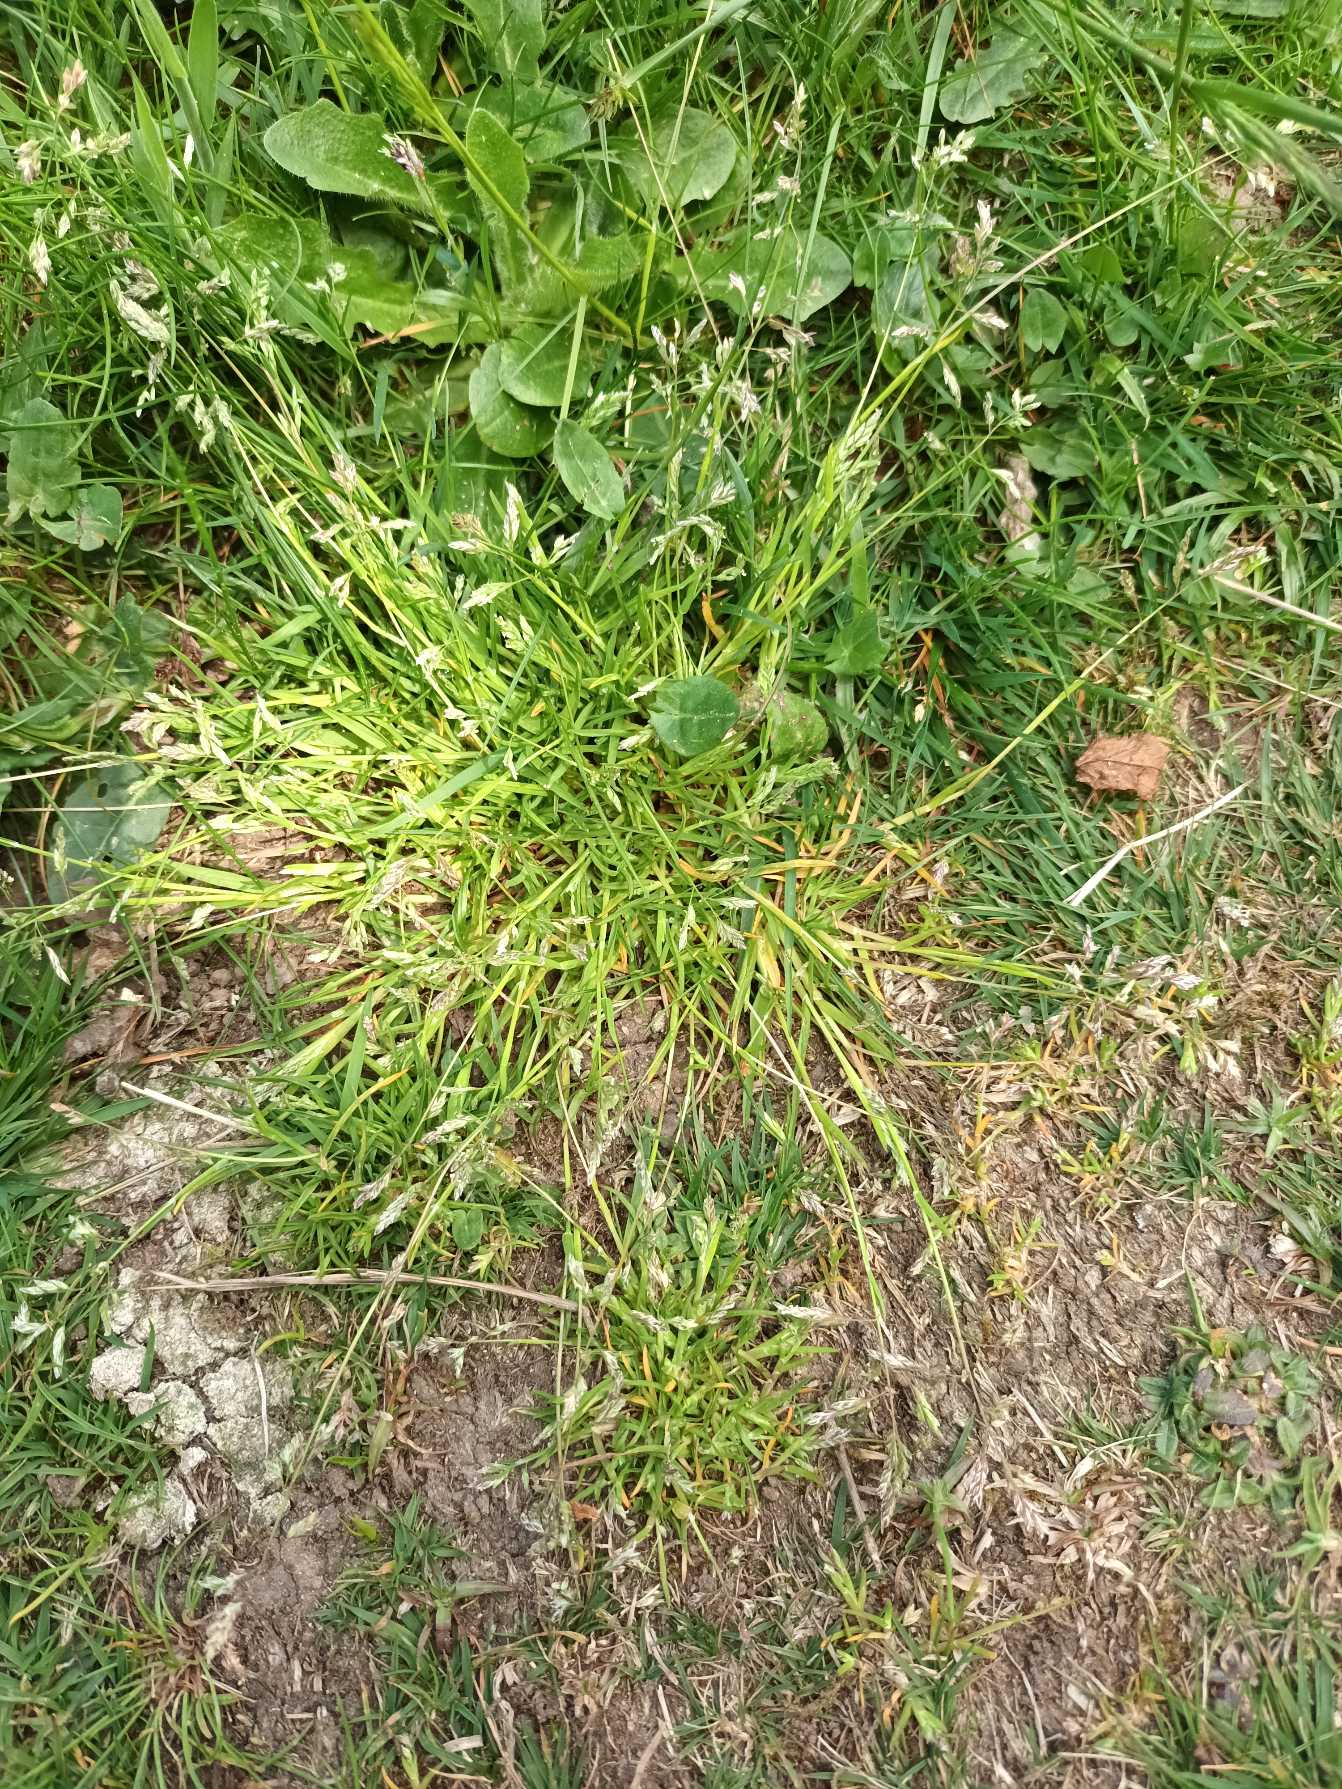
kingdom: Plantae
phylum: Tracheophyta
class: Liliopsida
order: Poales
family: Poaceae
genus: Poa
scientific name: Poa annua
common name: Enårig rapgræs
